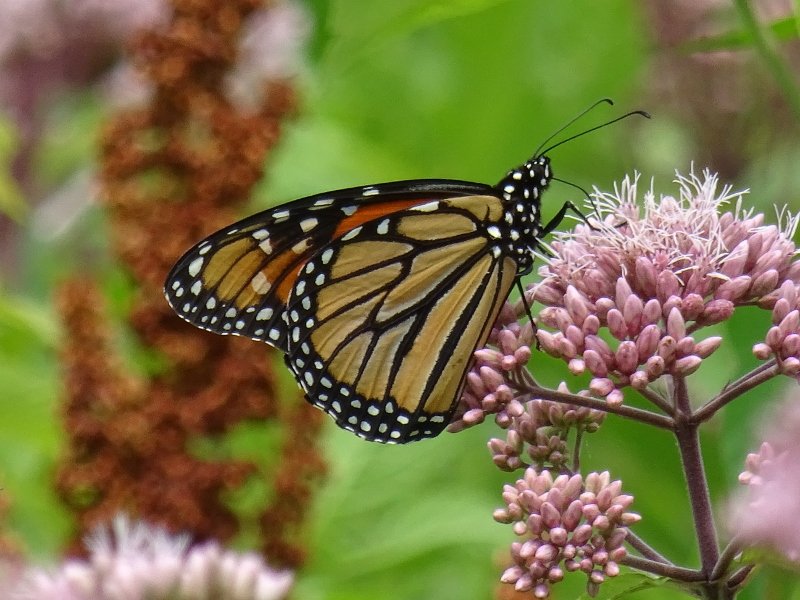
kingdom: Animalia
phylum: Arthropoda
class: Insecta
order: Lepidoptera
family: Nymphalidae
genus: Danaus
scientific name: Danaus plexippus
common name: Monarch
